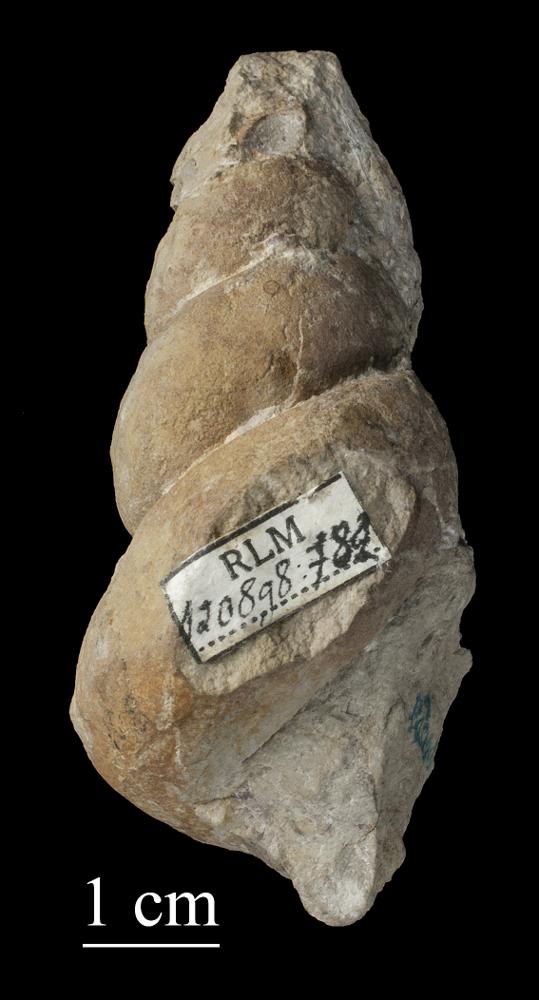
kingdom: Animalia
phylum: Mollusca
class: Gastropoda
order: Pleurotomariida
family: Murchisoniidae
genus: Murchisonia
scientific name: Murchisonia
